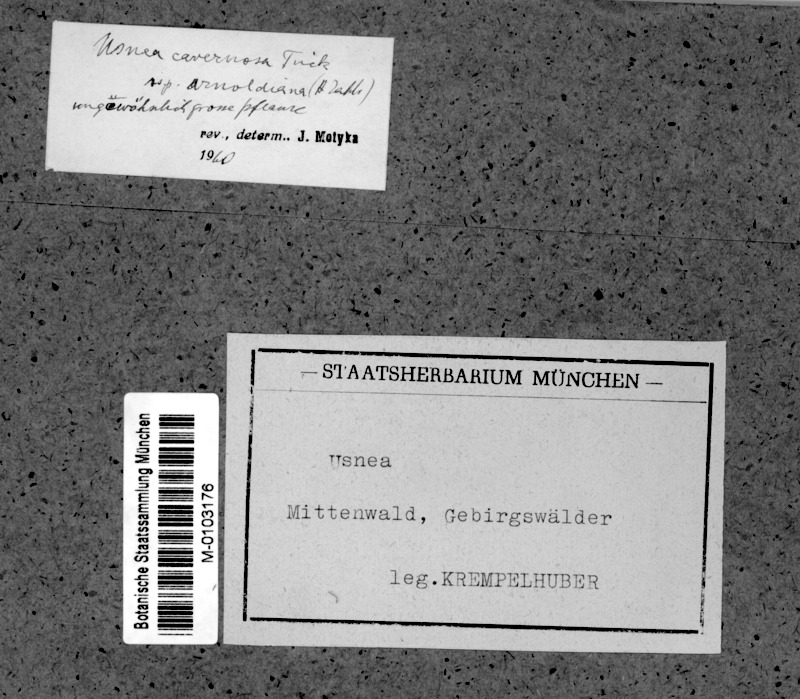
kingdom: Fungi
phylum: Ascomycota
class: Lecanoromycetes
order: Lecanorales
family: Parmeliaceae
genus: Usnea
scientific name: Usnea cavernosa
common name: Pitted beard lichen
